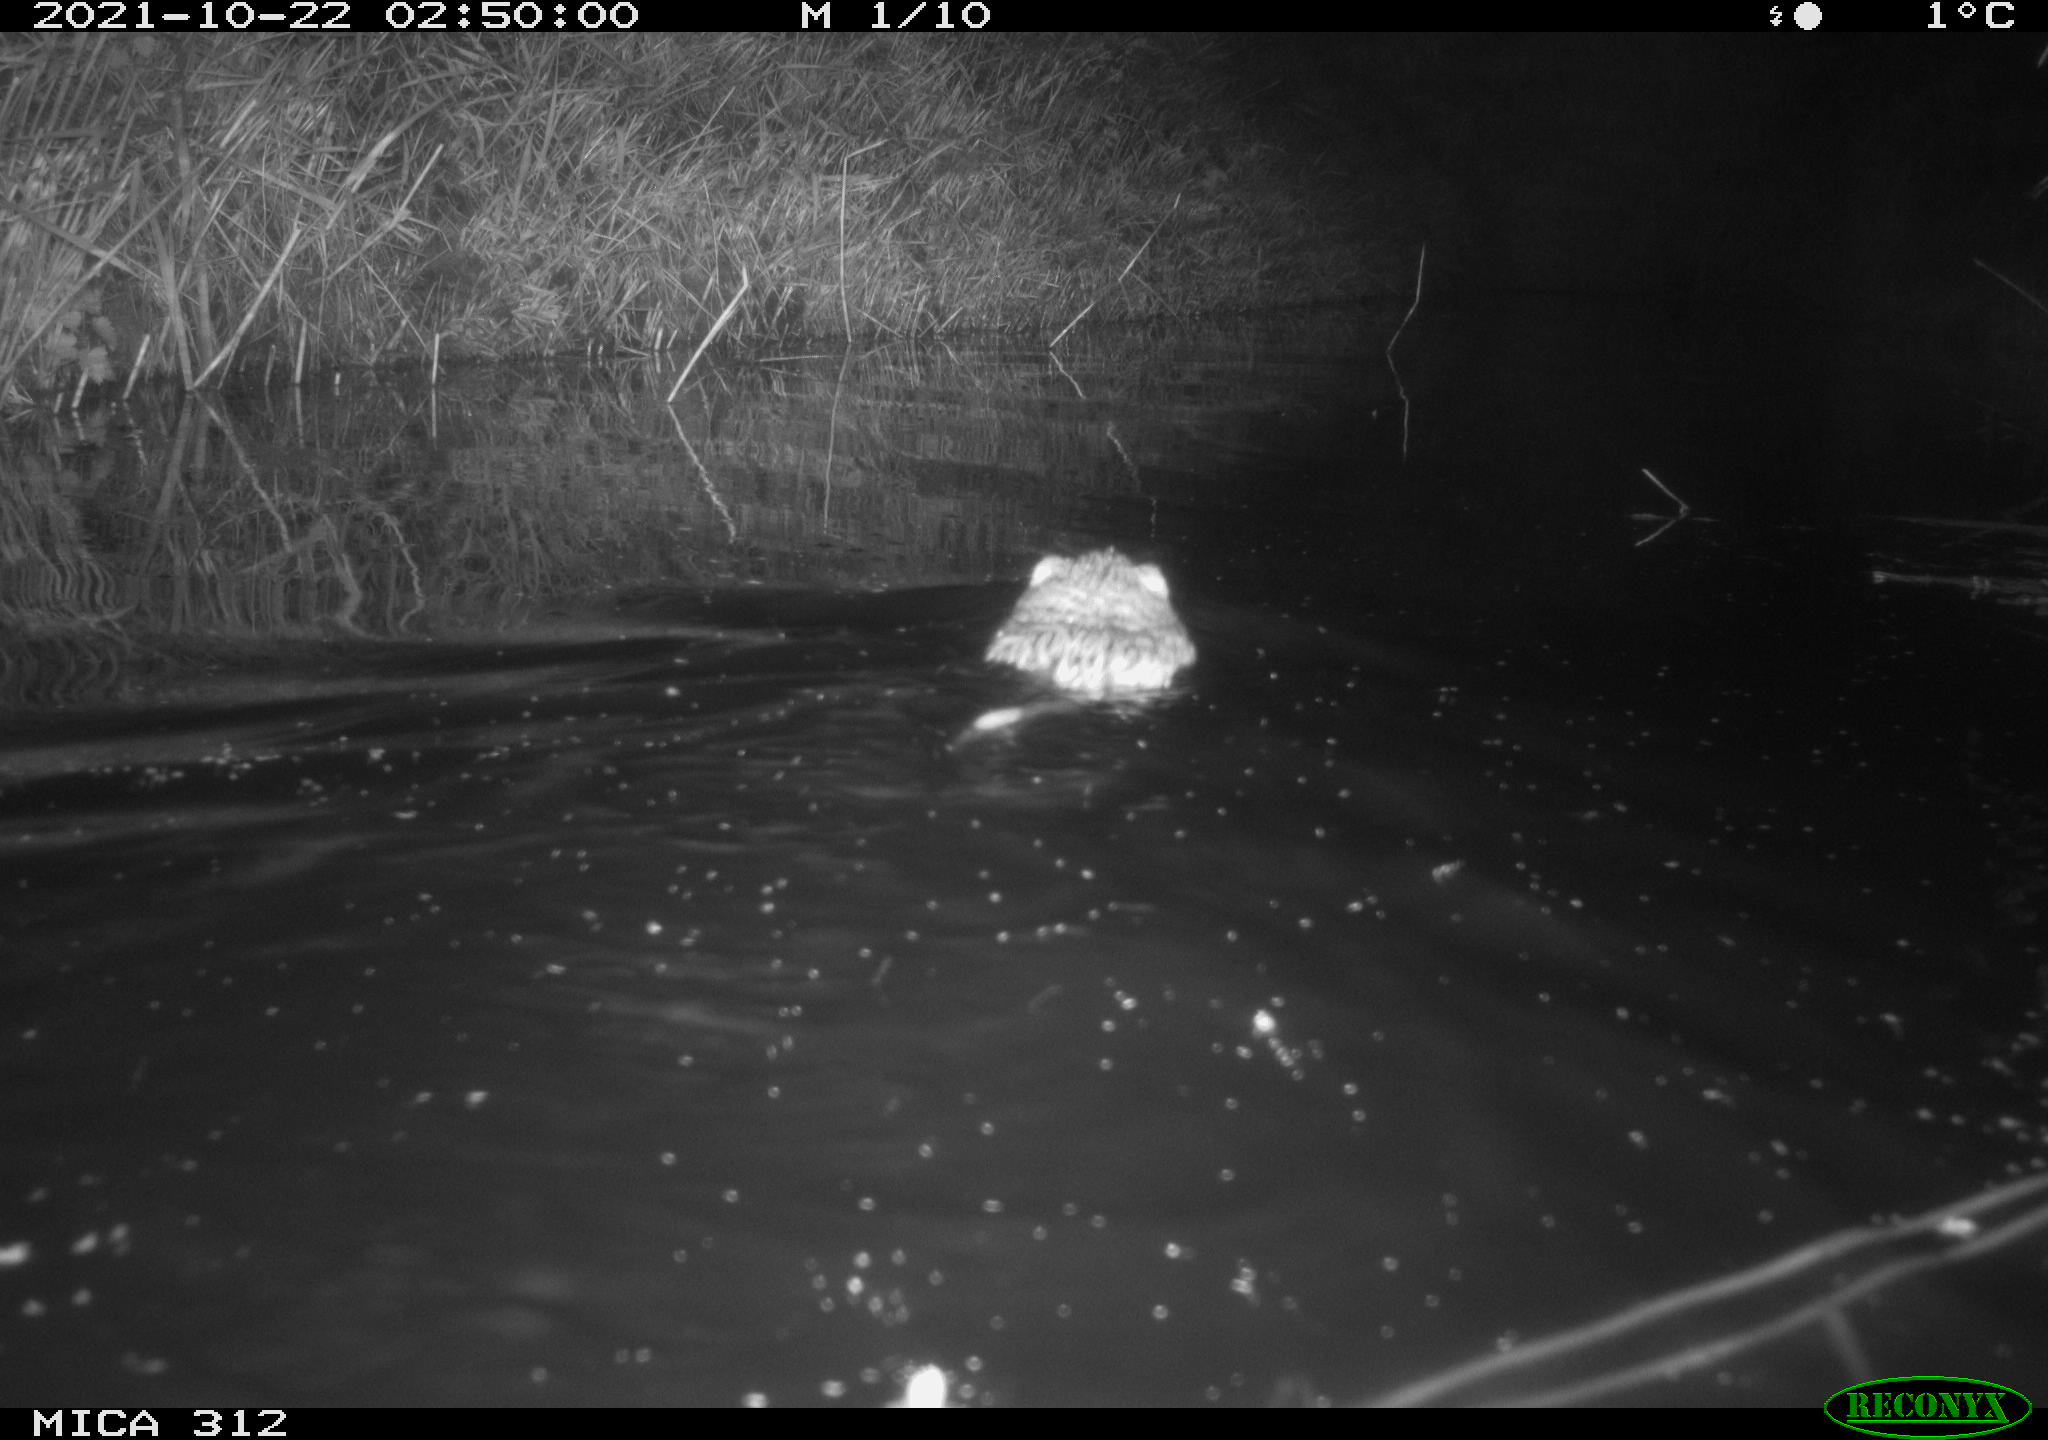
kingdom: Animalia
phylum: Chordata
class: Mammalia
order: Rodentia
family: Cricetidae
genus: Ondatra
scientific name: Ondatra zibethicus
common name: Muskrat
